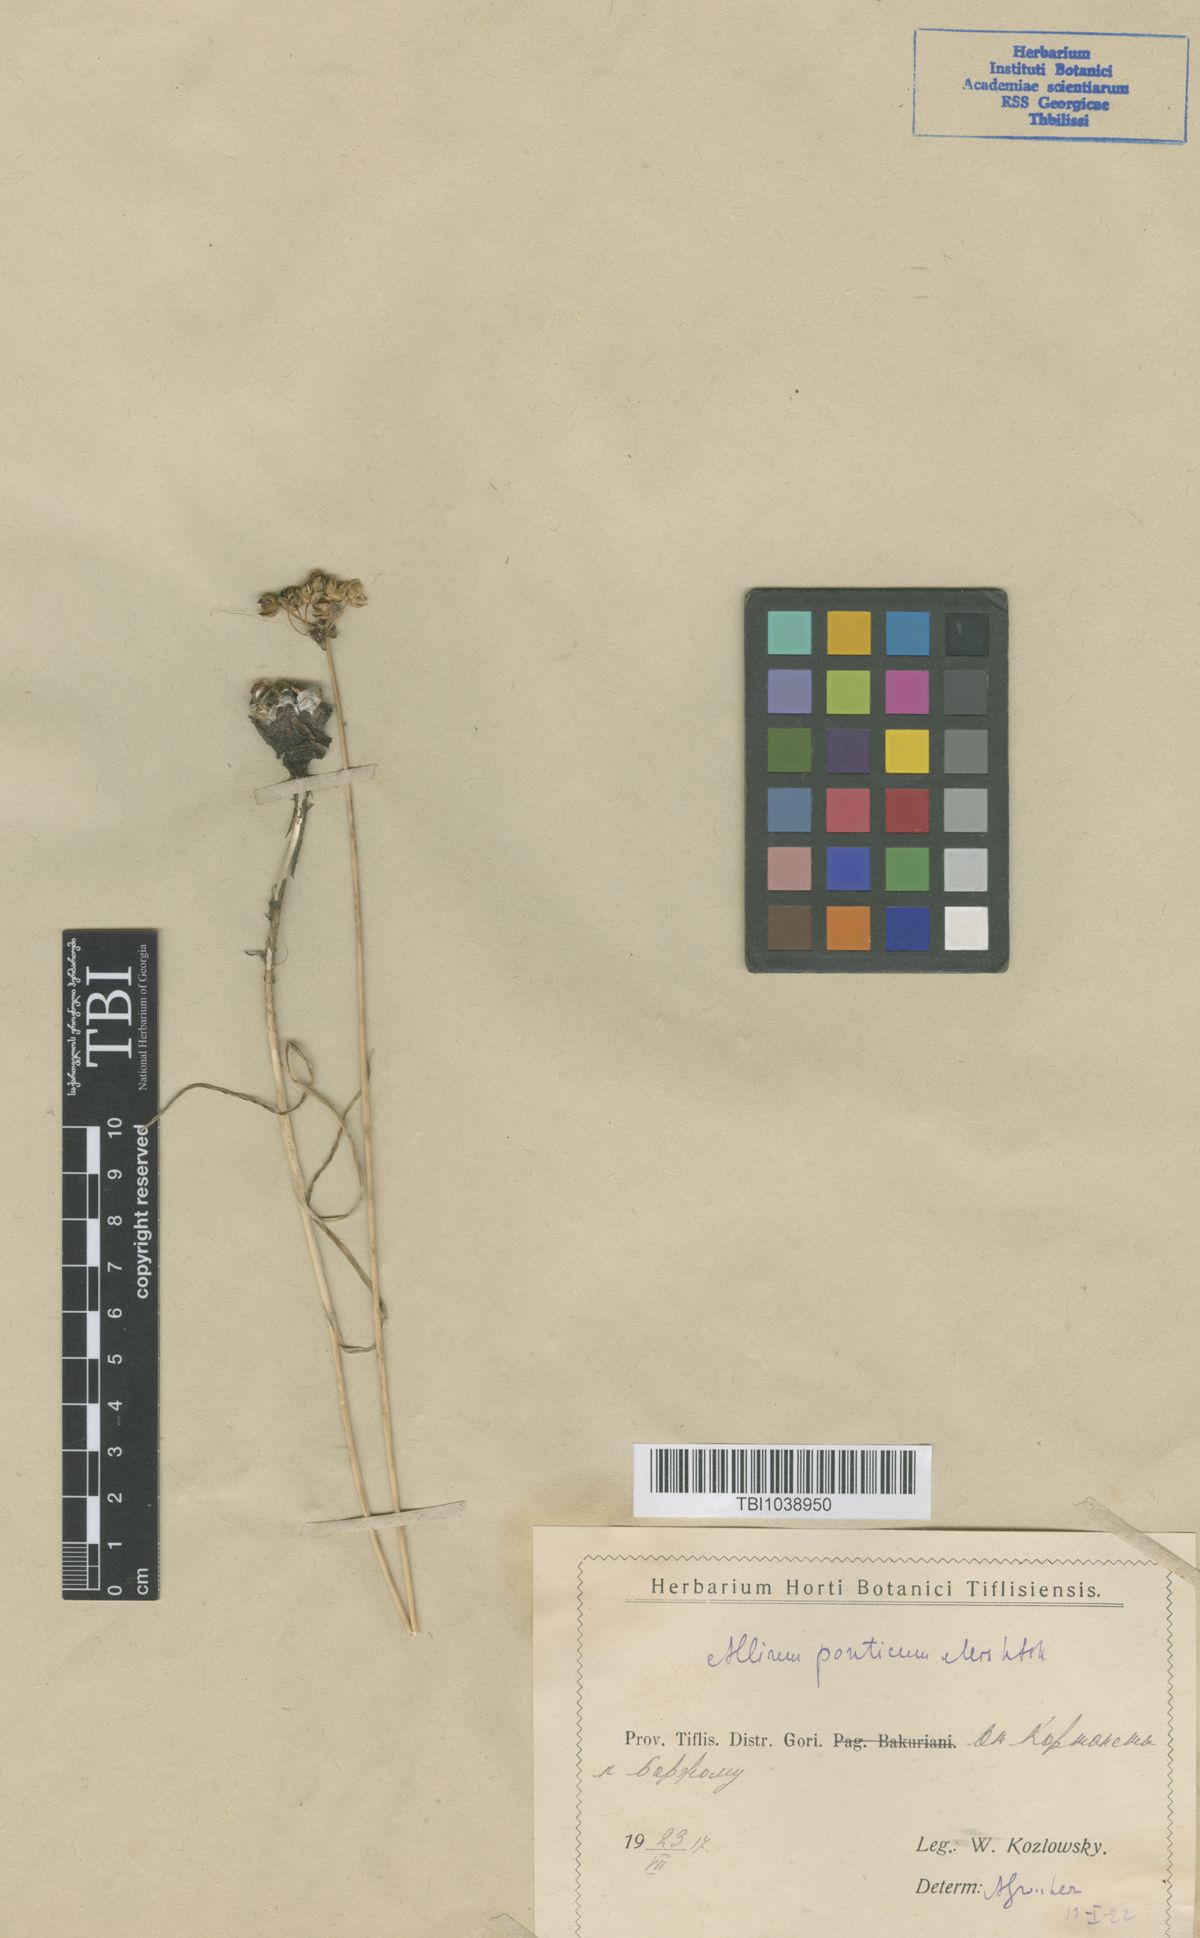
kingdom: Plantae
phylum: Tracheophyta
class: Liliopsida
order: Asparagales
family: Amaryllidaceae
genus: Allium
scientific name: Allium ponticum
